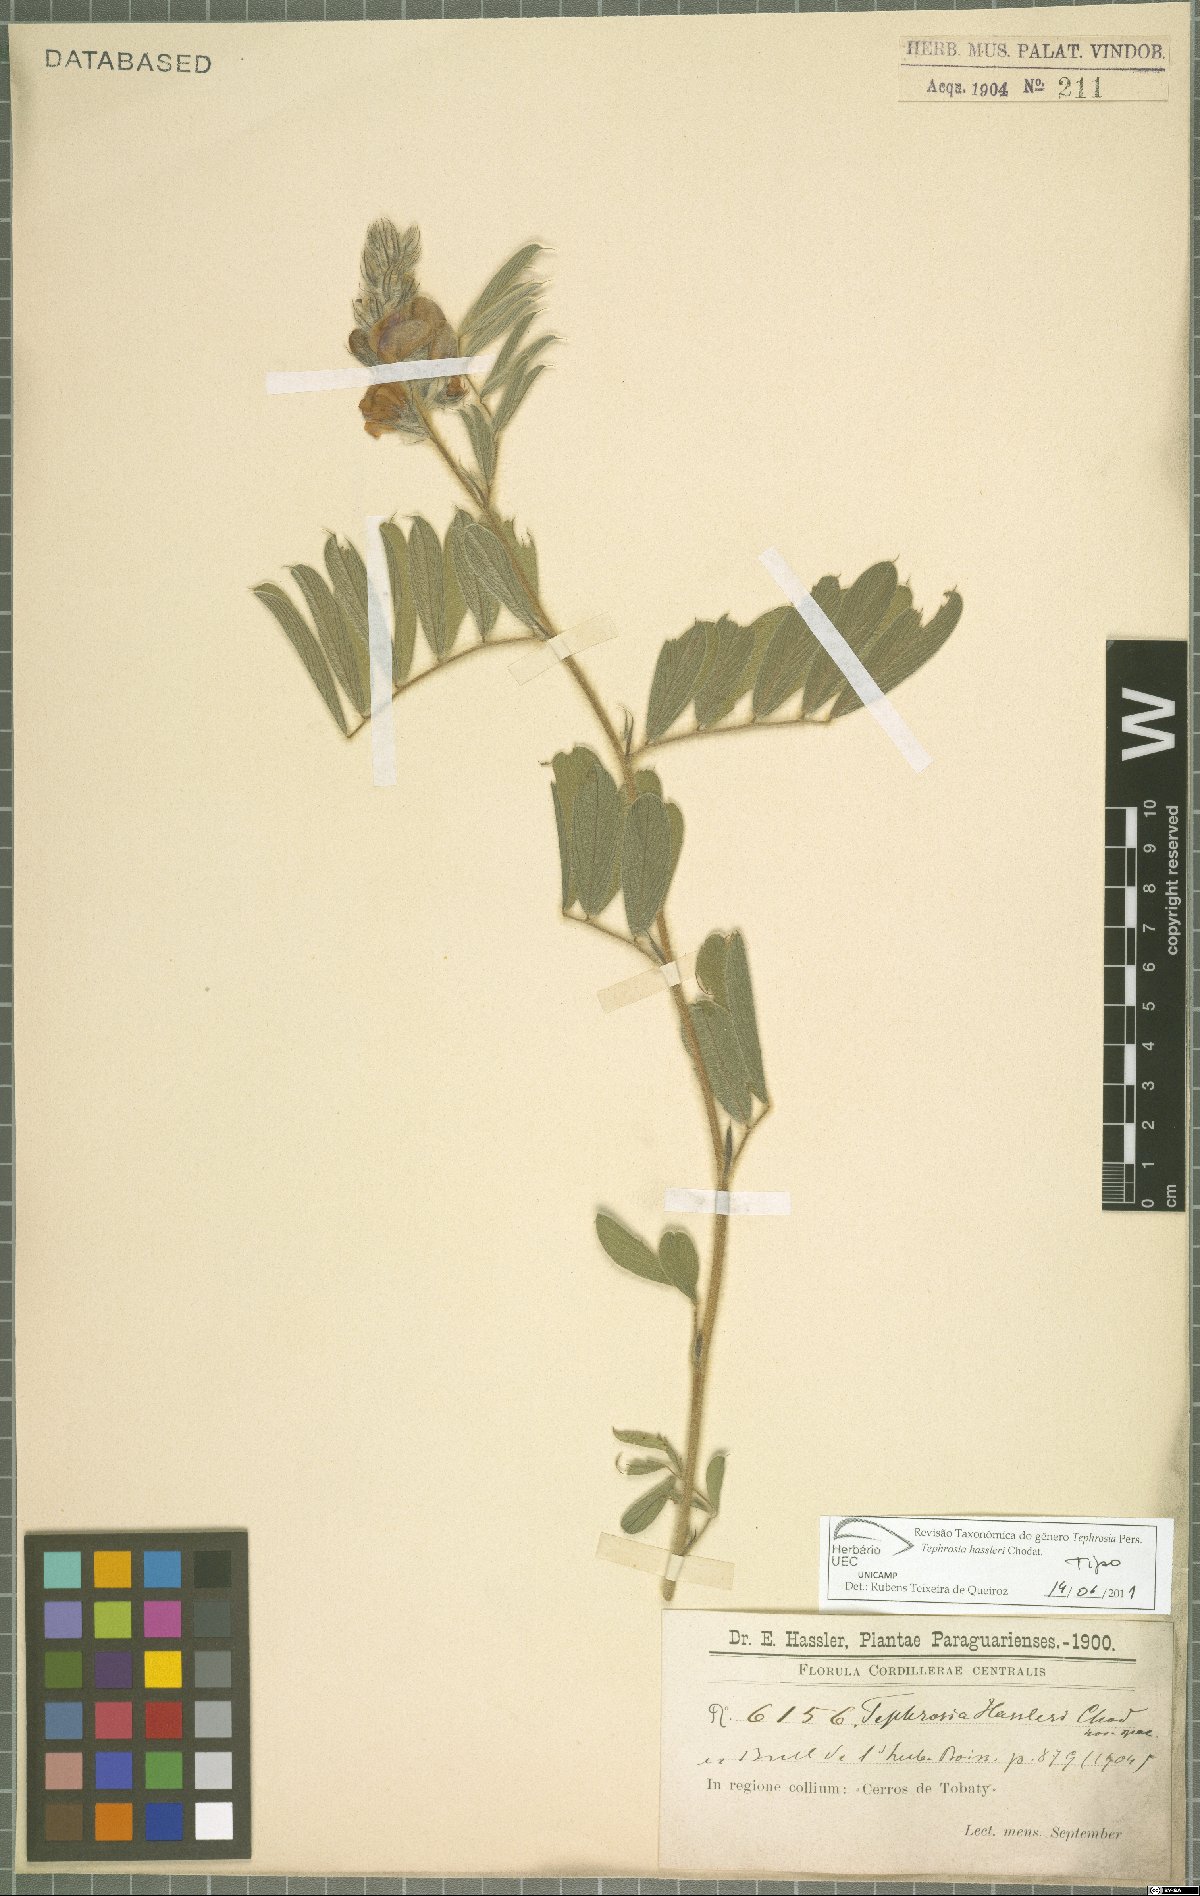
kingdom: Plantae
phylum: Tracheophyta
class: Magnoliopsida
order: Fabales
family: Fabaceae
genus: Tephrosia
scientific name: Tephrosia hassleri
